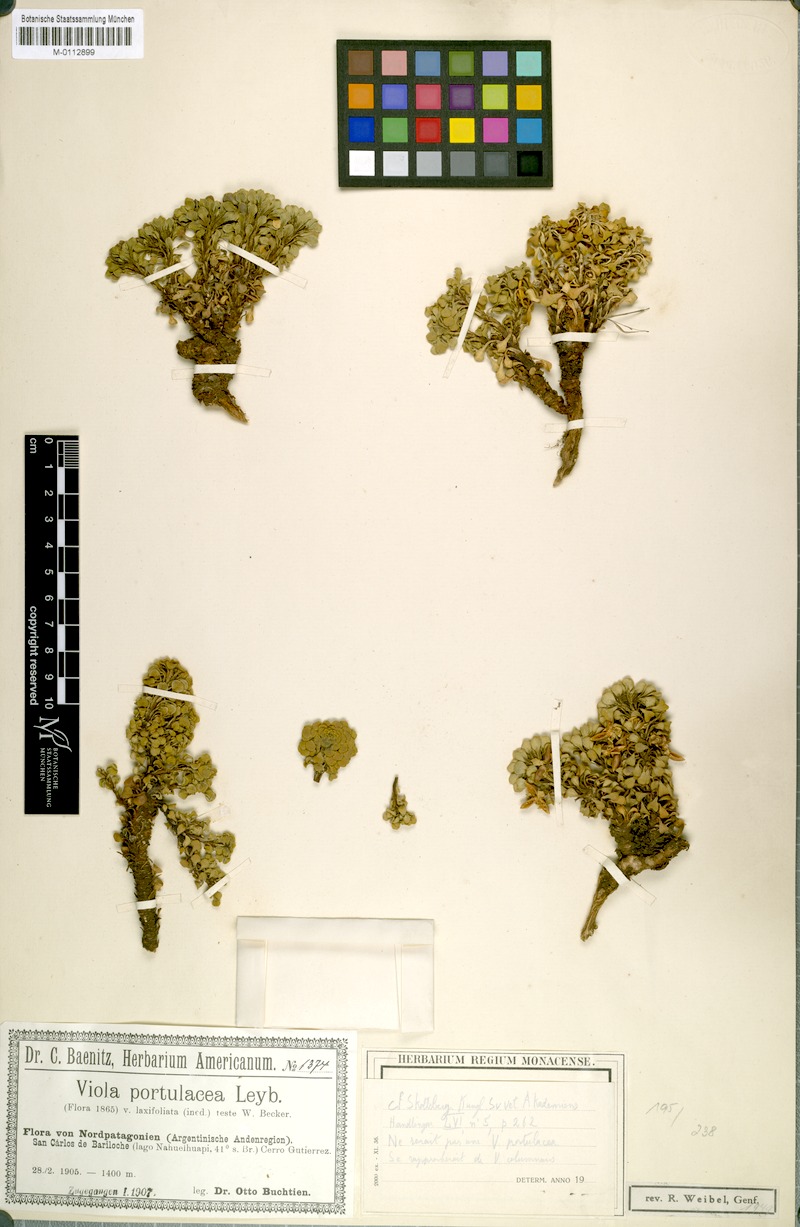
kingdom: Plantae
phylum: Tracheophyta
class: Magnoliopsida
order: Malpighiales
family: Violaceae
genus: Viola
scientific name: Viola portulacea
